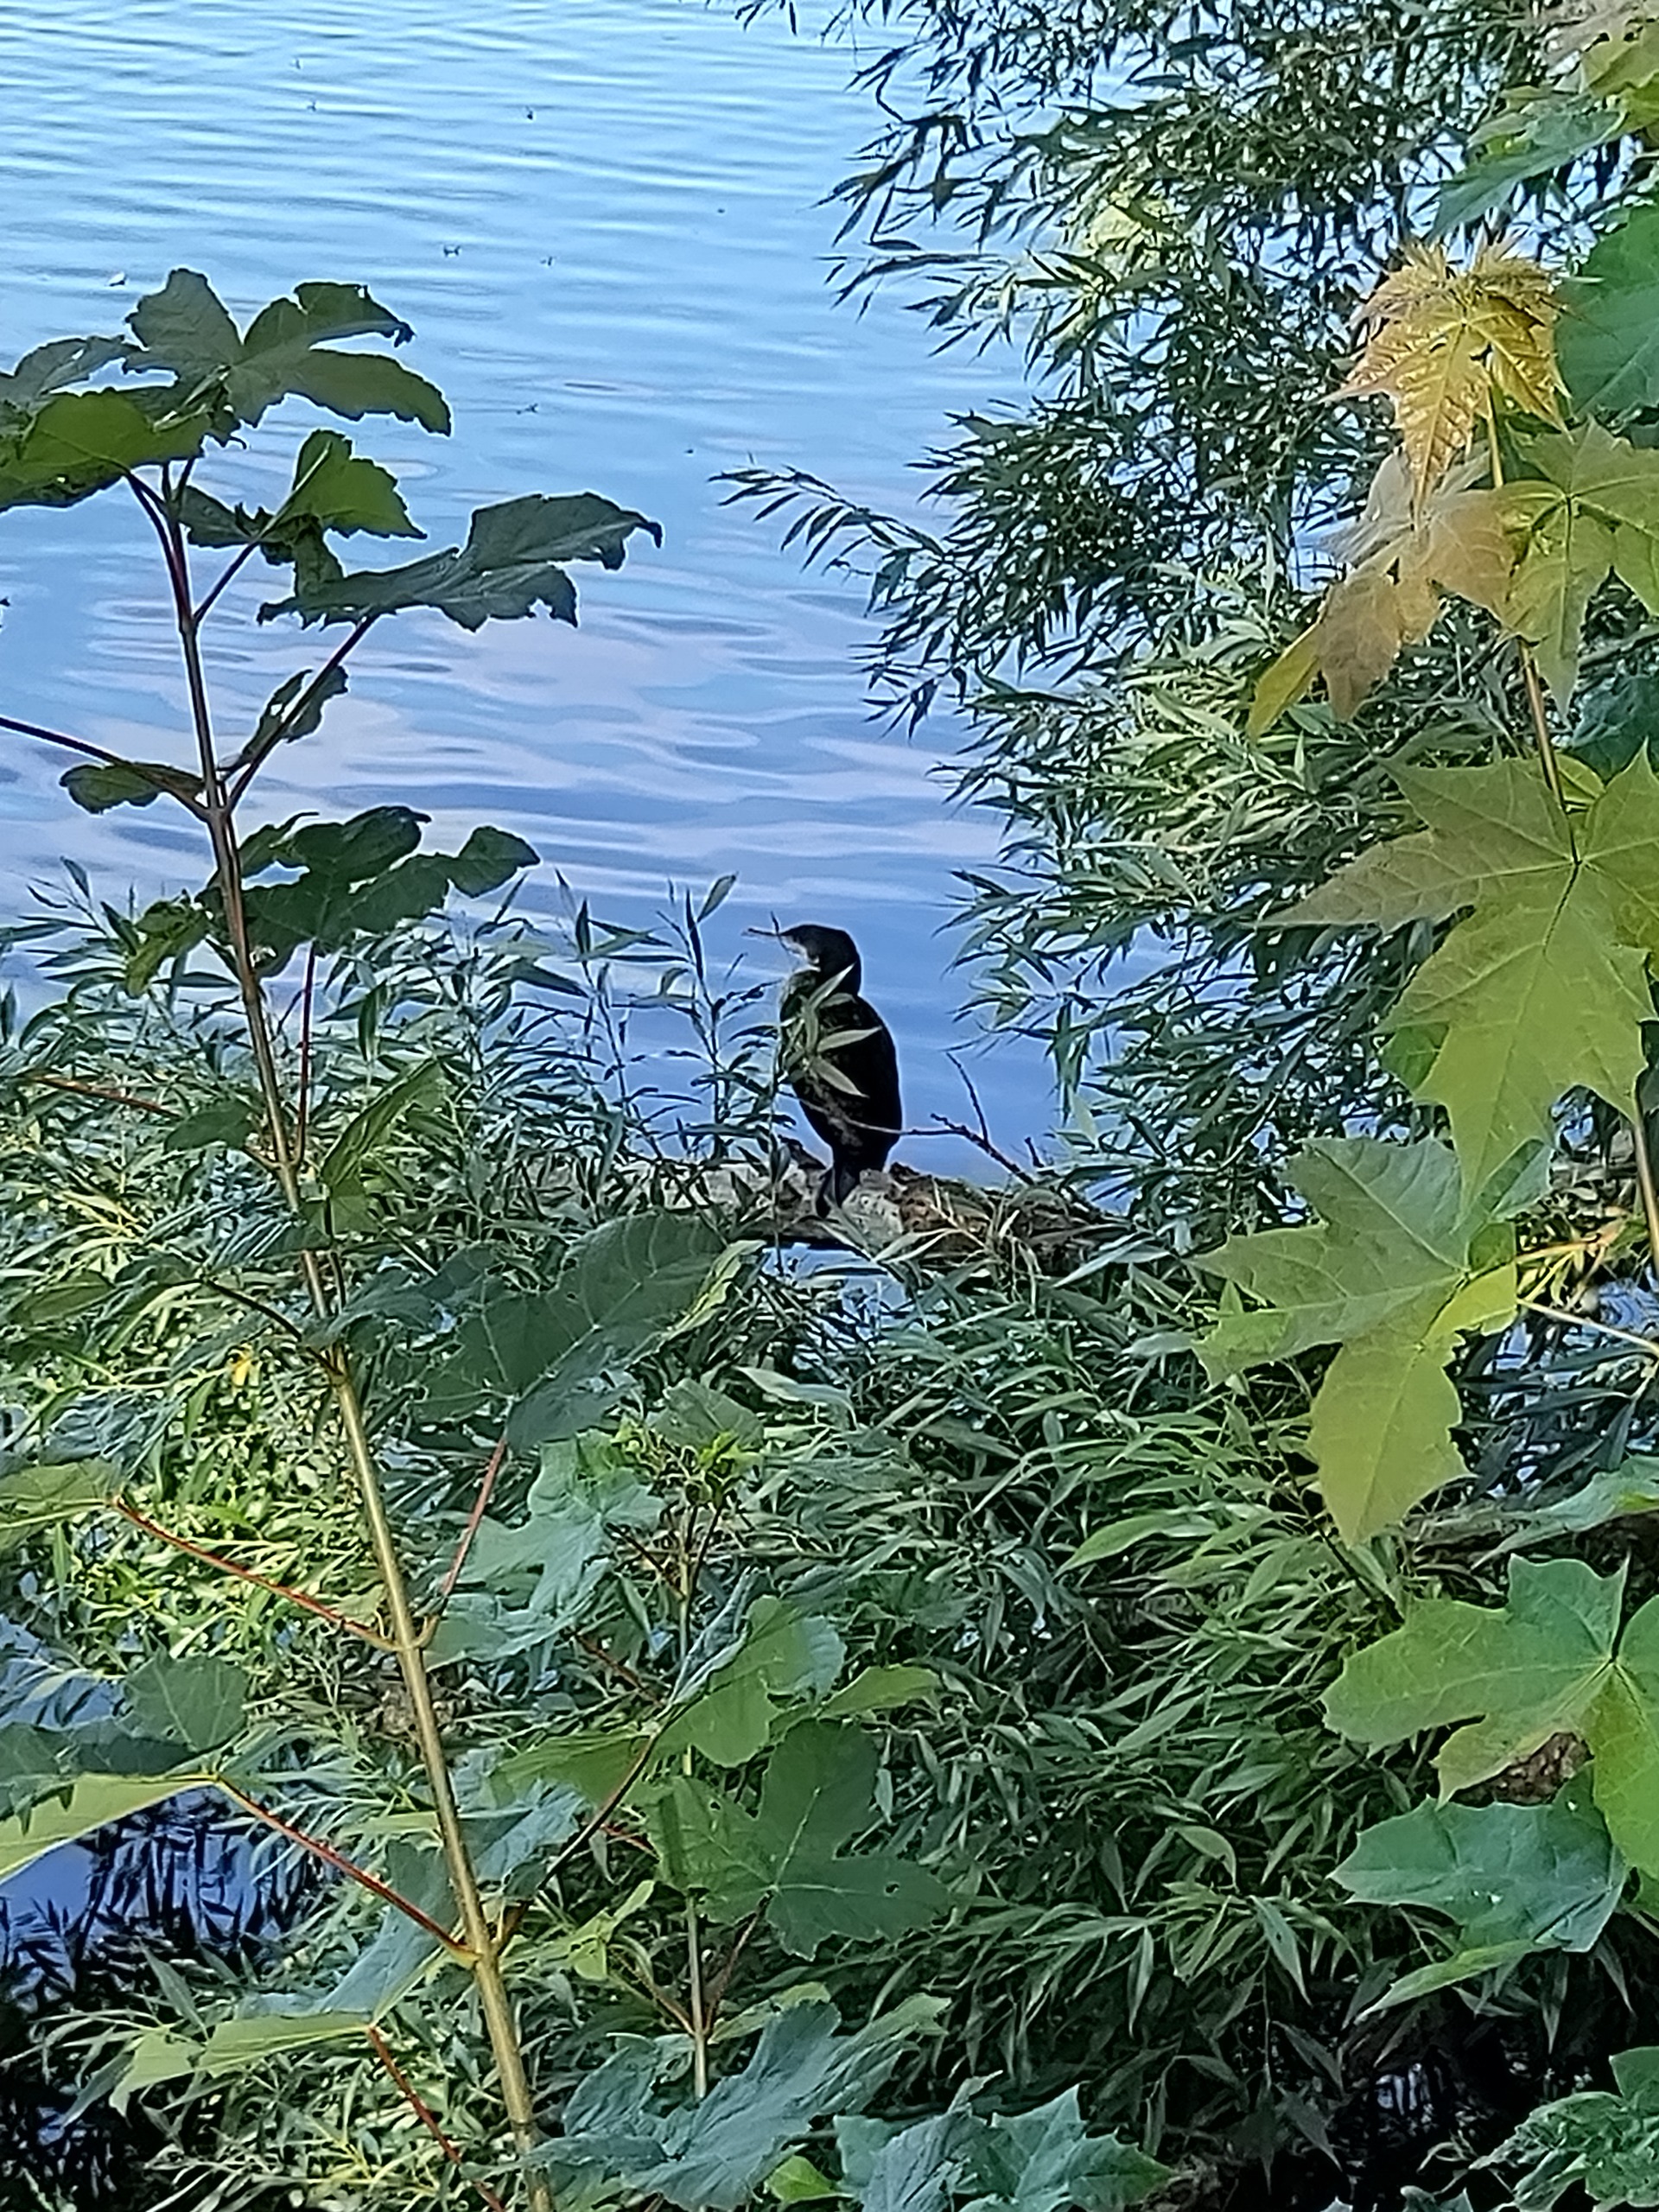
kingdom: Animalia
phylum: Chordata
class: Aves
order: Suliformes
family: Phalacrocoracidae
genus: Phalacrocorax
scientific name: Phalacrocorax carbo
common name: Skarv
